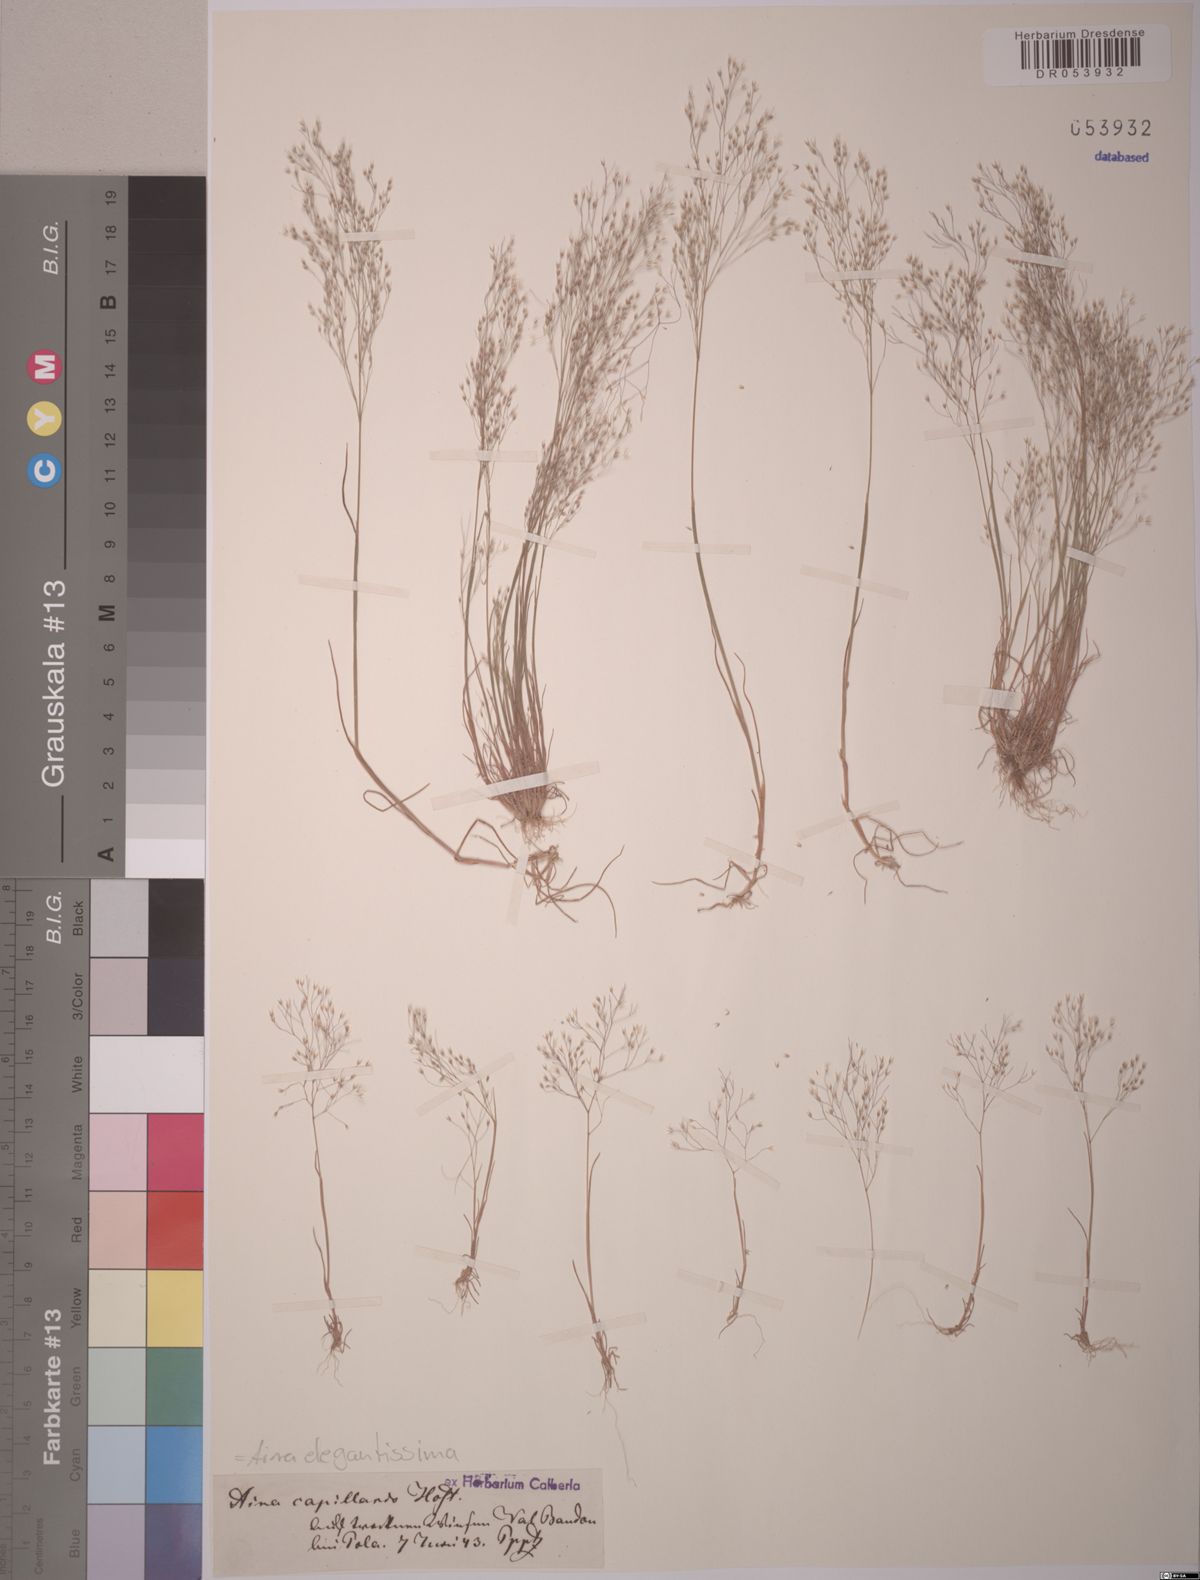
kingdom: Plantae
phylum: Tracheophyta
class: Liliopsida
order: Poales
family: Poaceae
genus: Aira
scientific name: Aira elegans
